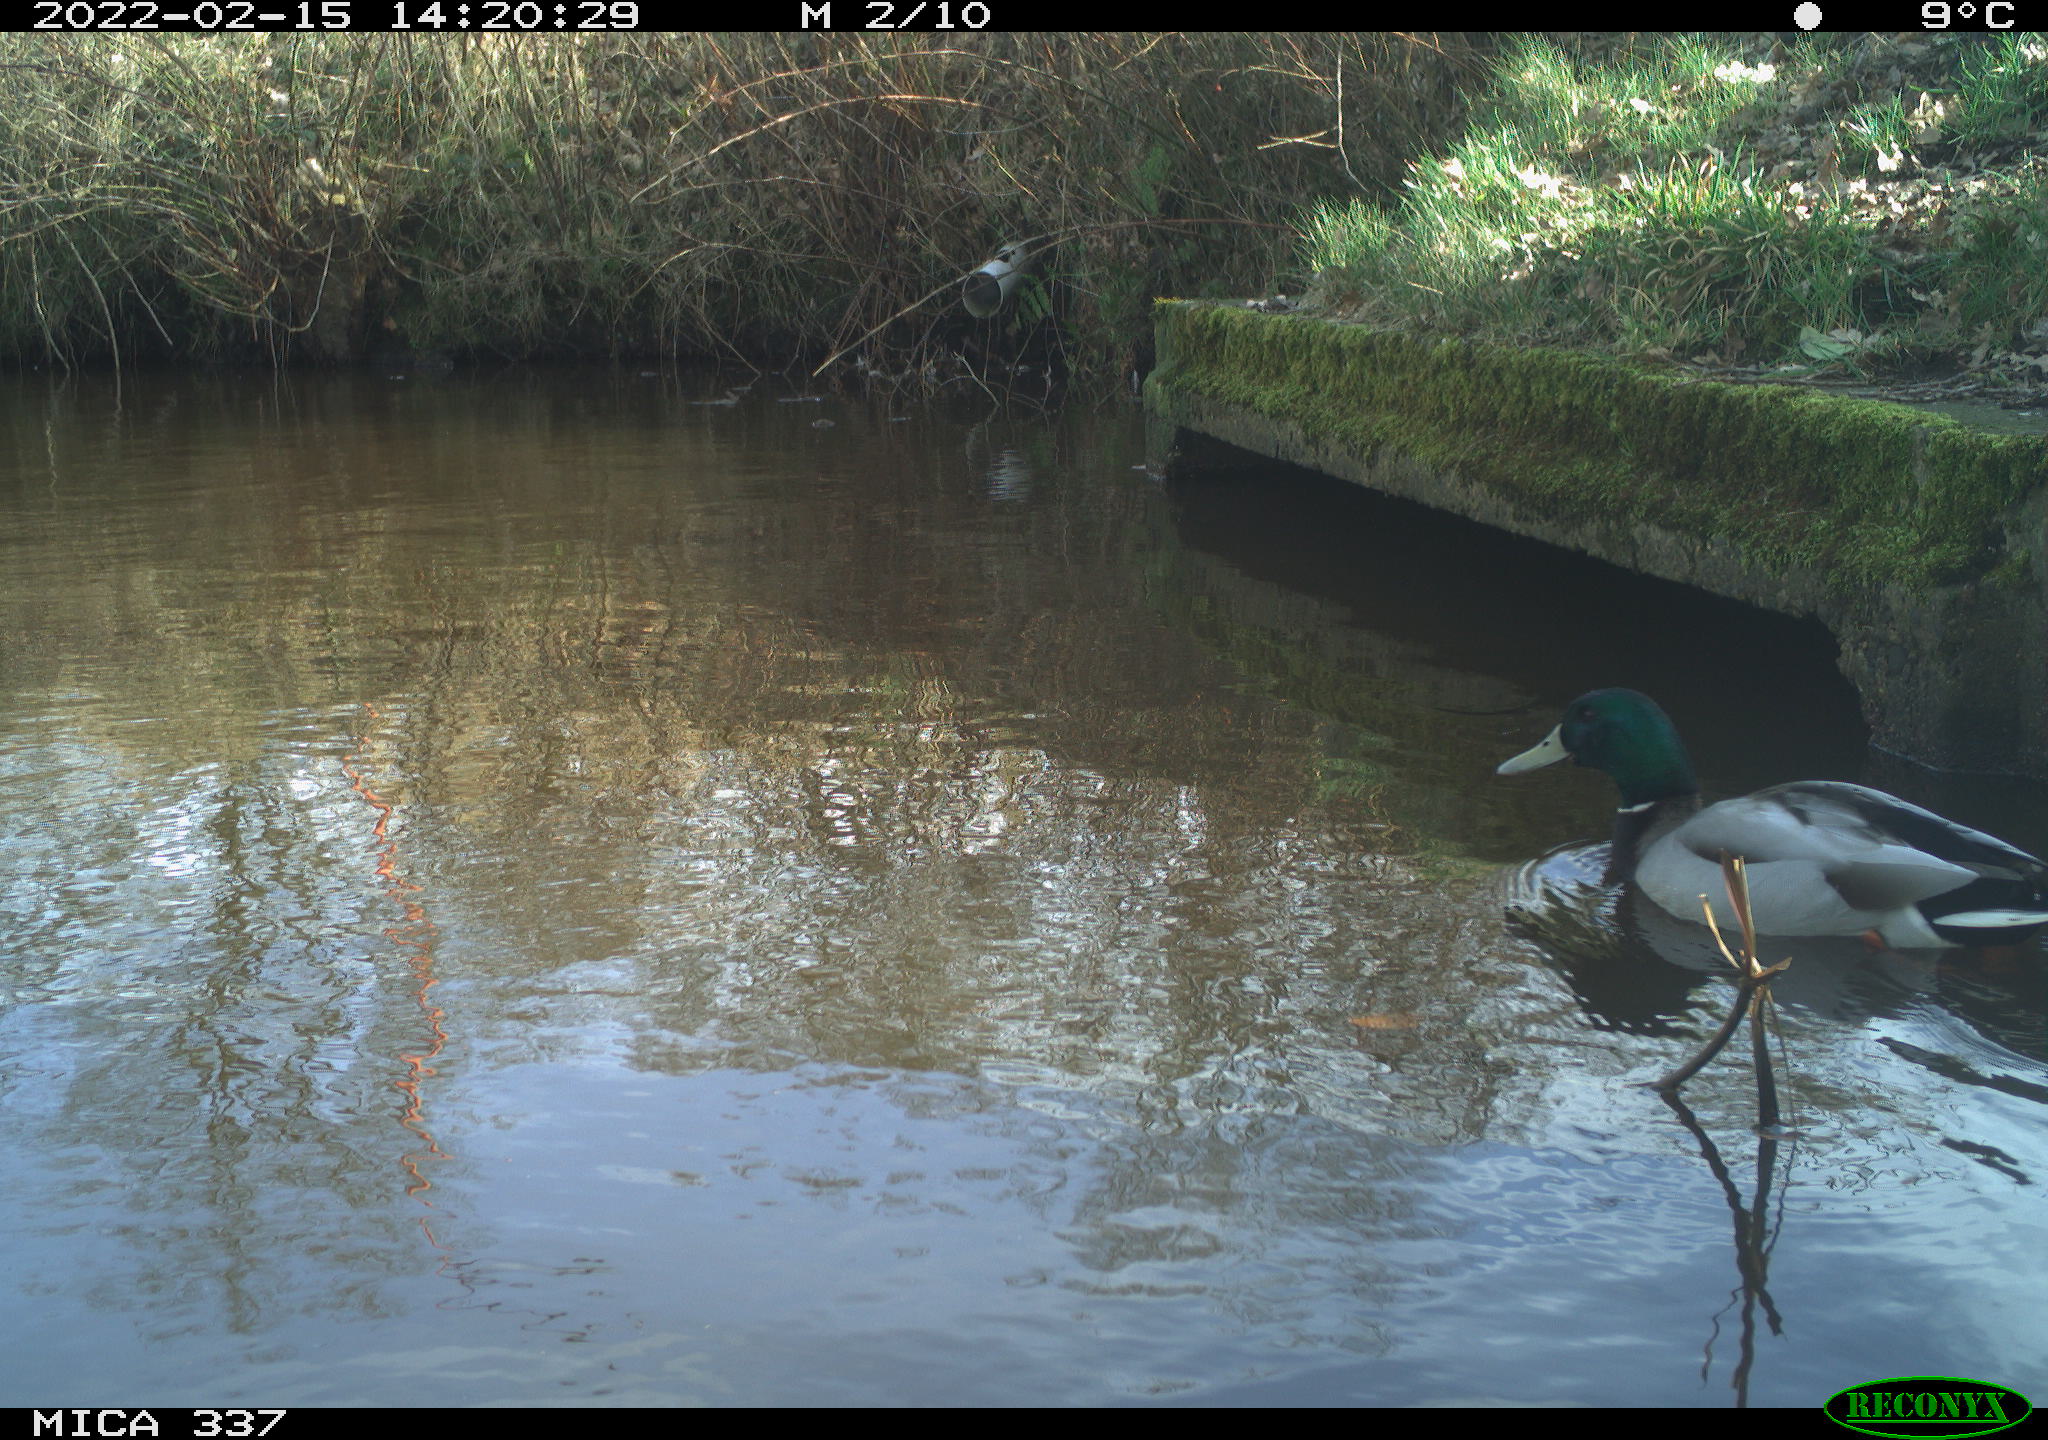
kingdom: Animalia
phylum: Chordata
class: Aves
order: Anseriformes
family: Anatidae
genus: Anas
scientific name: Anas platyrhynchos
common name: Mallard
